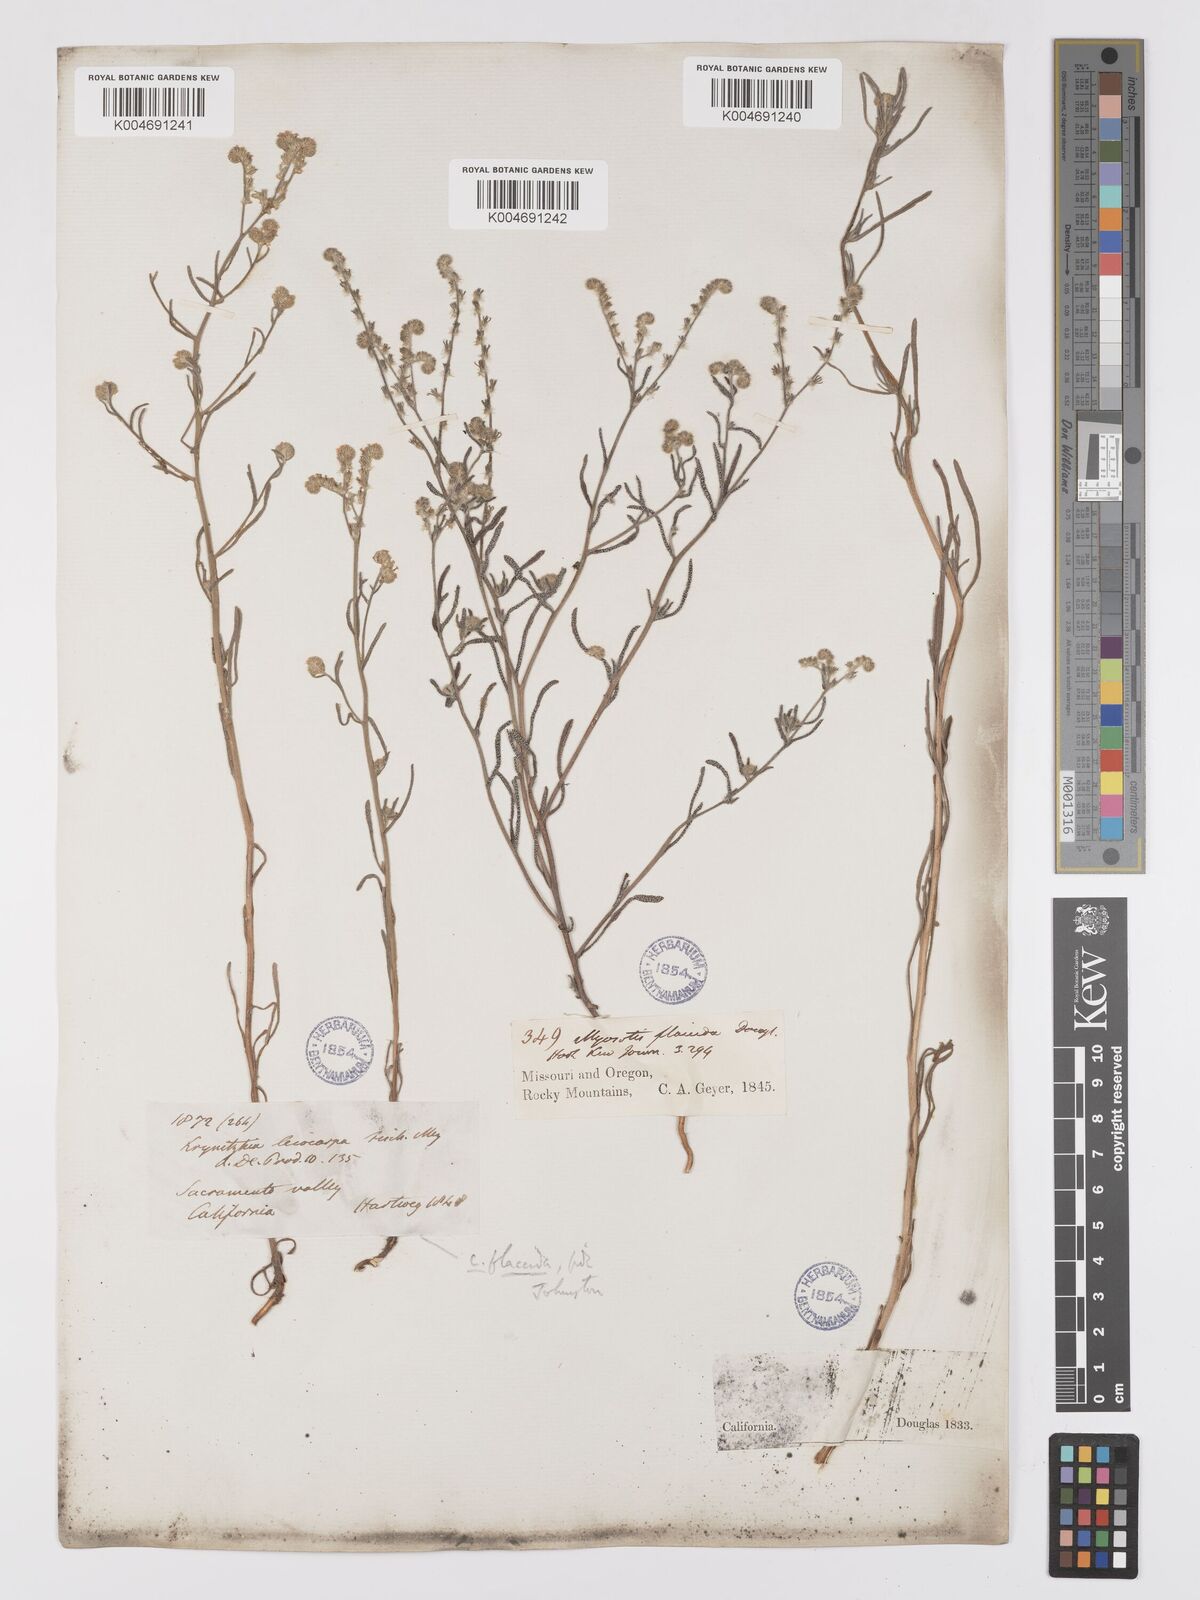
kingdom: Plantae
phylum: Tracheophyta
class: Magnoliopsida
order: Boraginales
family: Boraginaceae
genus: Cryptantha
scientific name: Cryptantha flaccida
